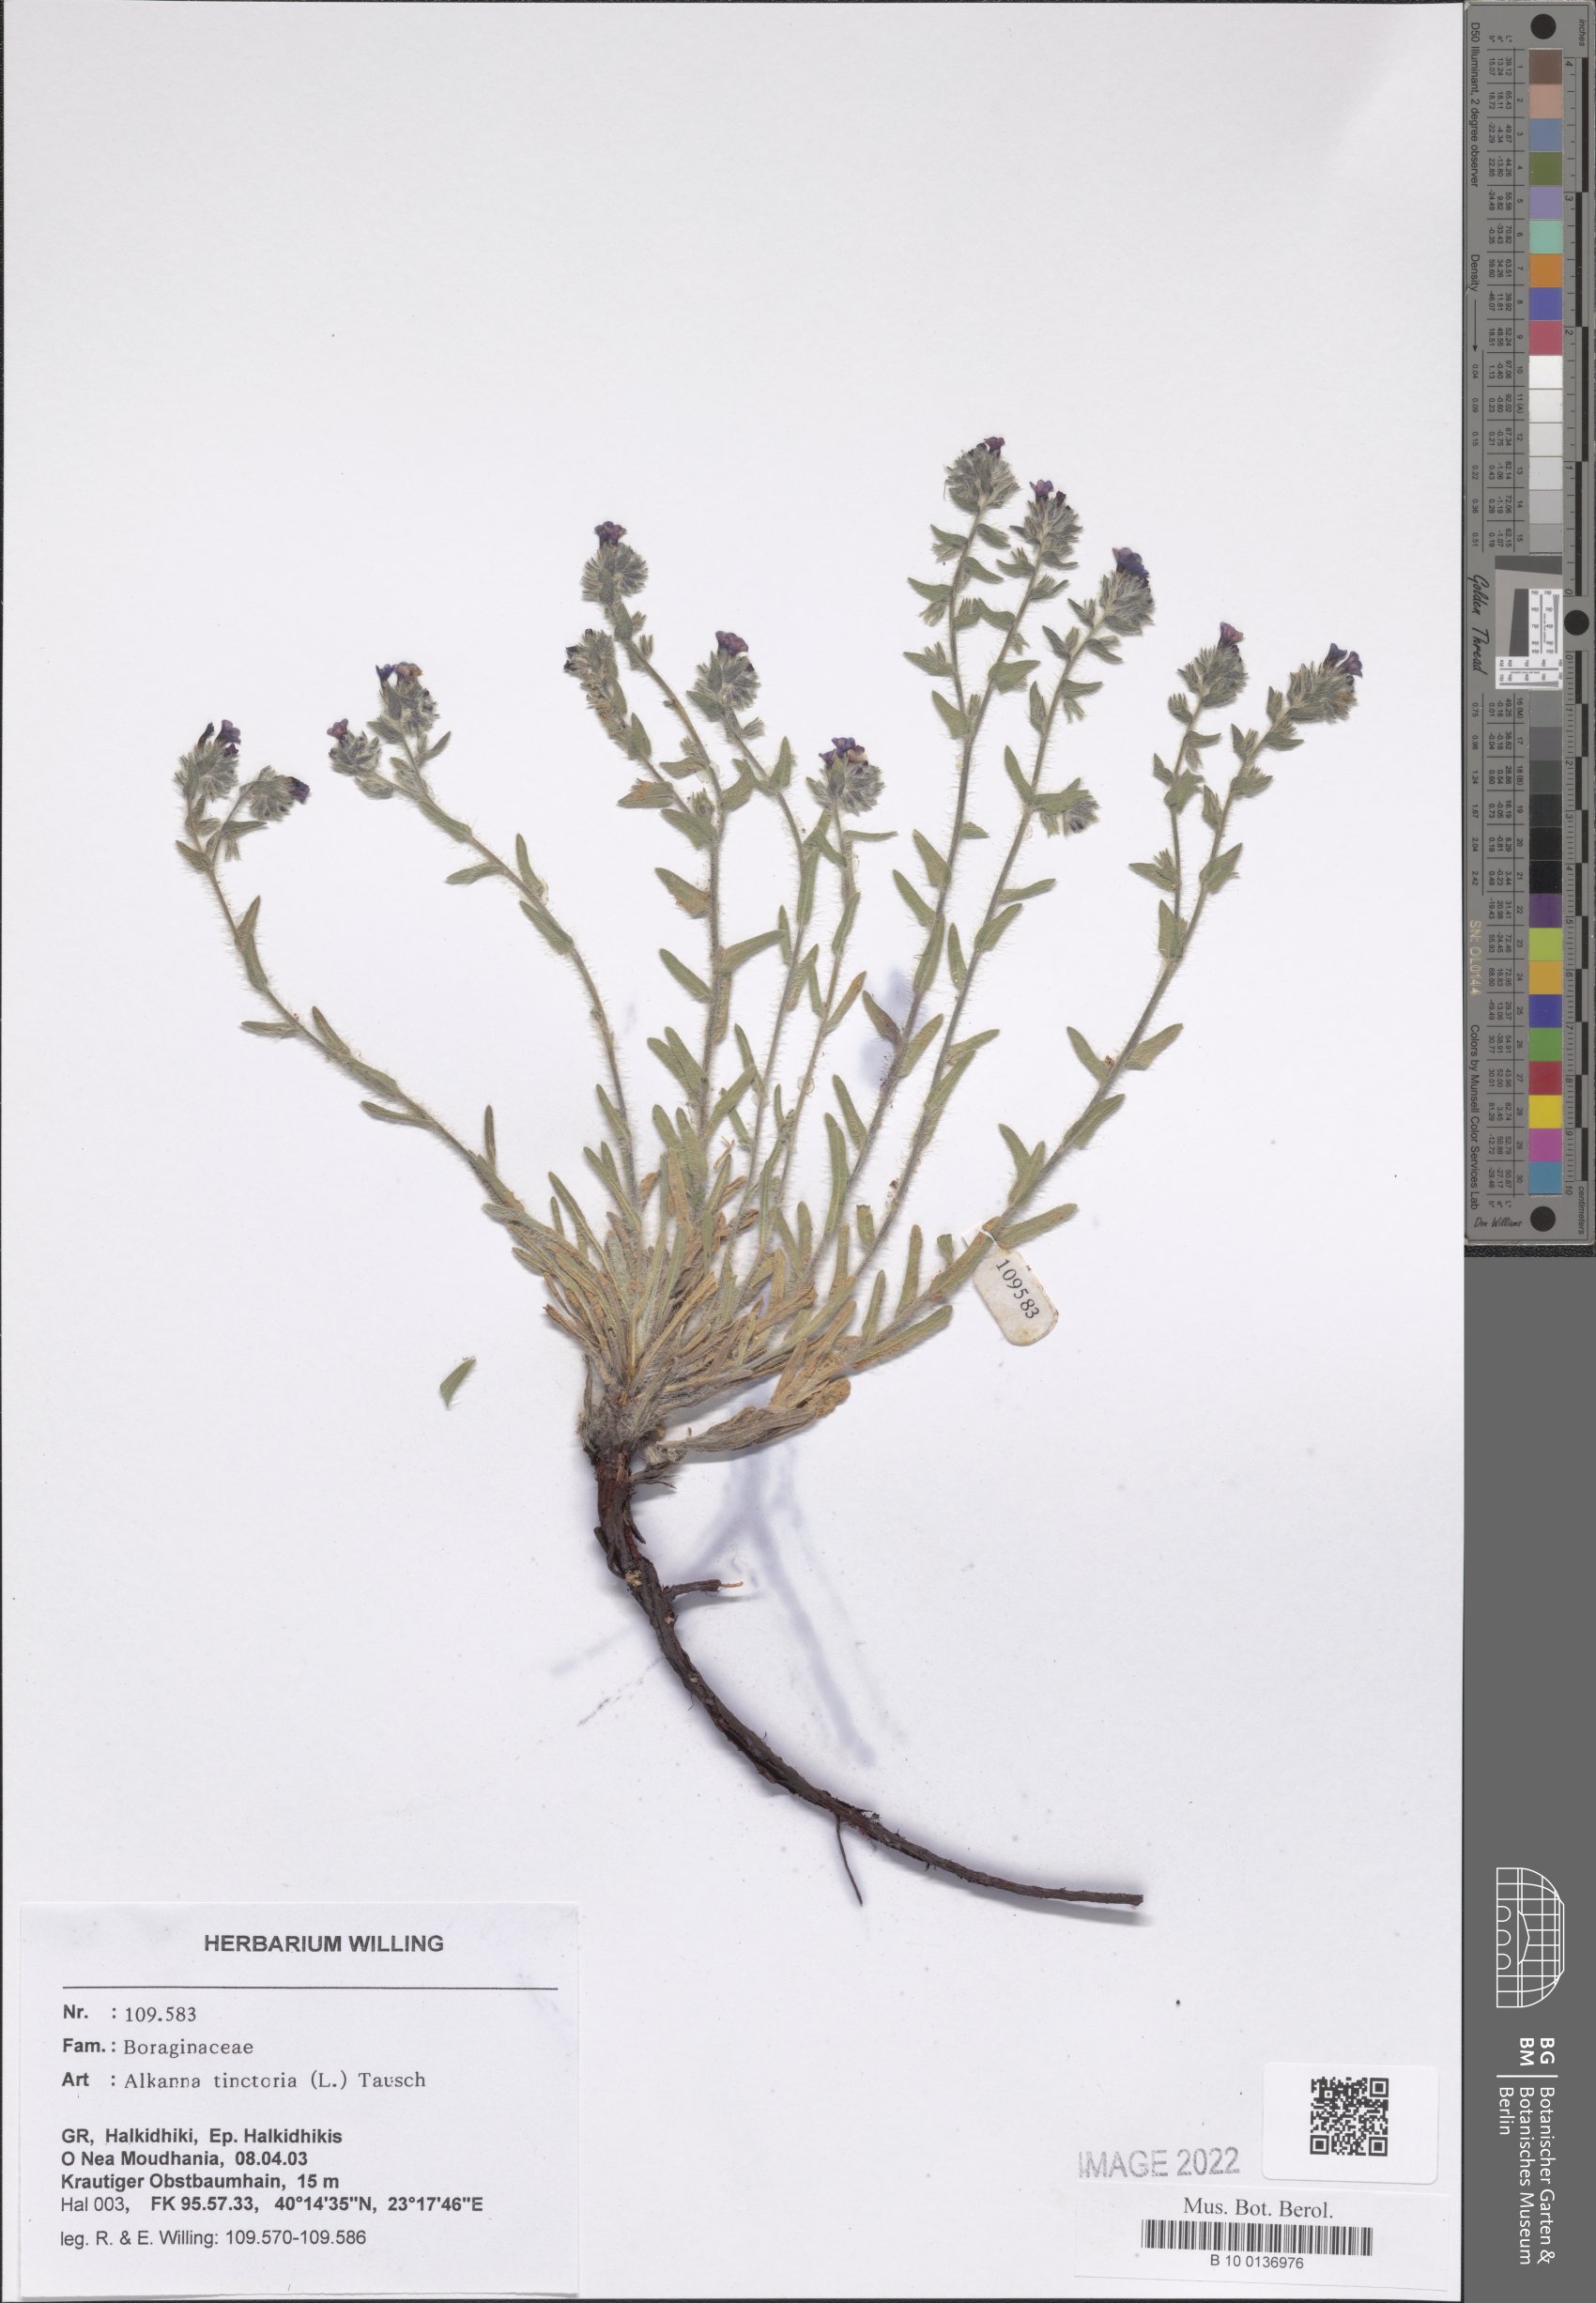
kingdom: Plantae
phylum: Tracheophyta
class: Magnoliopsida
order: Boraginales
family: Boraginaceae
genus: Alkanna
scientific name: Alkanna tinctoria
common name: Dyer's-alkanet
